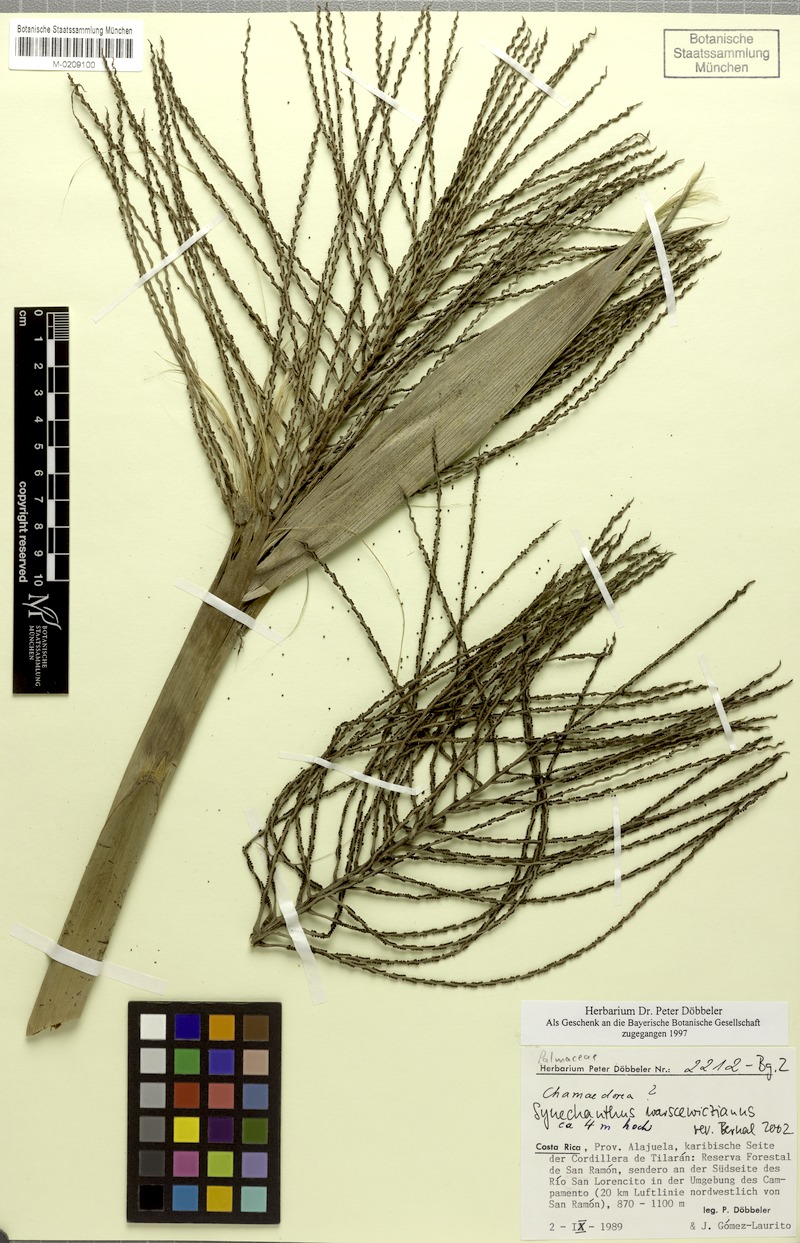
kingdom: Plantae
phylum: Tracheophyta
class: Liliopsida
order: Arecales
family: Arecaceae
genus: Synechanthus
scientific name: Synechanthus warscewiczianus
